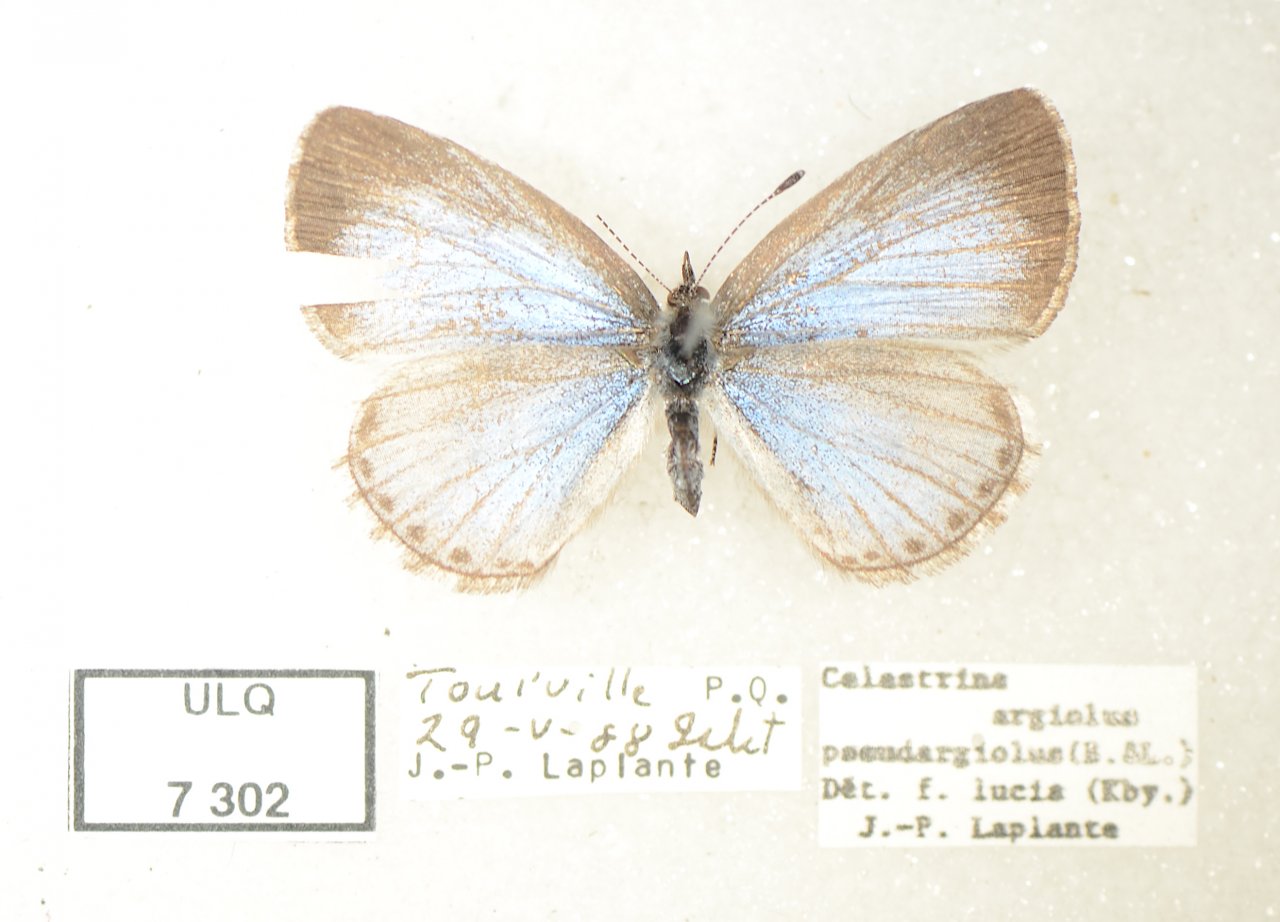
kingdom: Animalia
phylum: Arthropoda
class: Insecta
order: Lepidoptera
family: Lycaenidae
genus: Celastrina
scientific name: Celastrina lucia
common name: Northern Spring Azure
